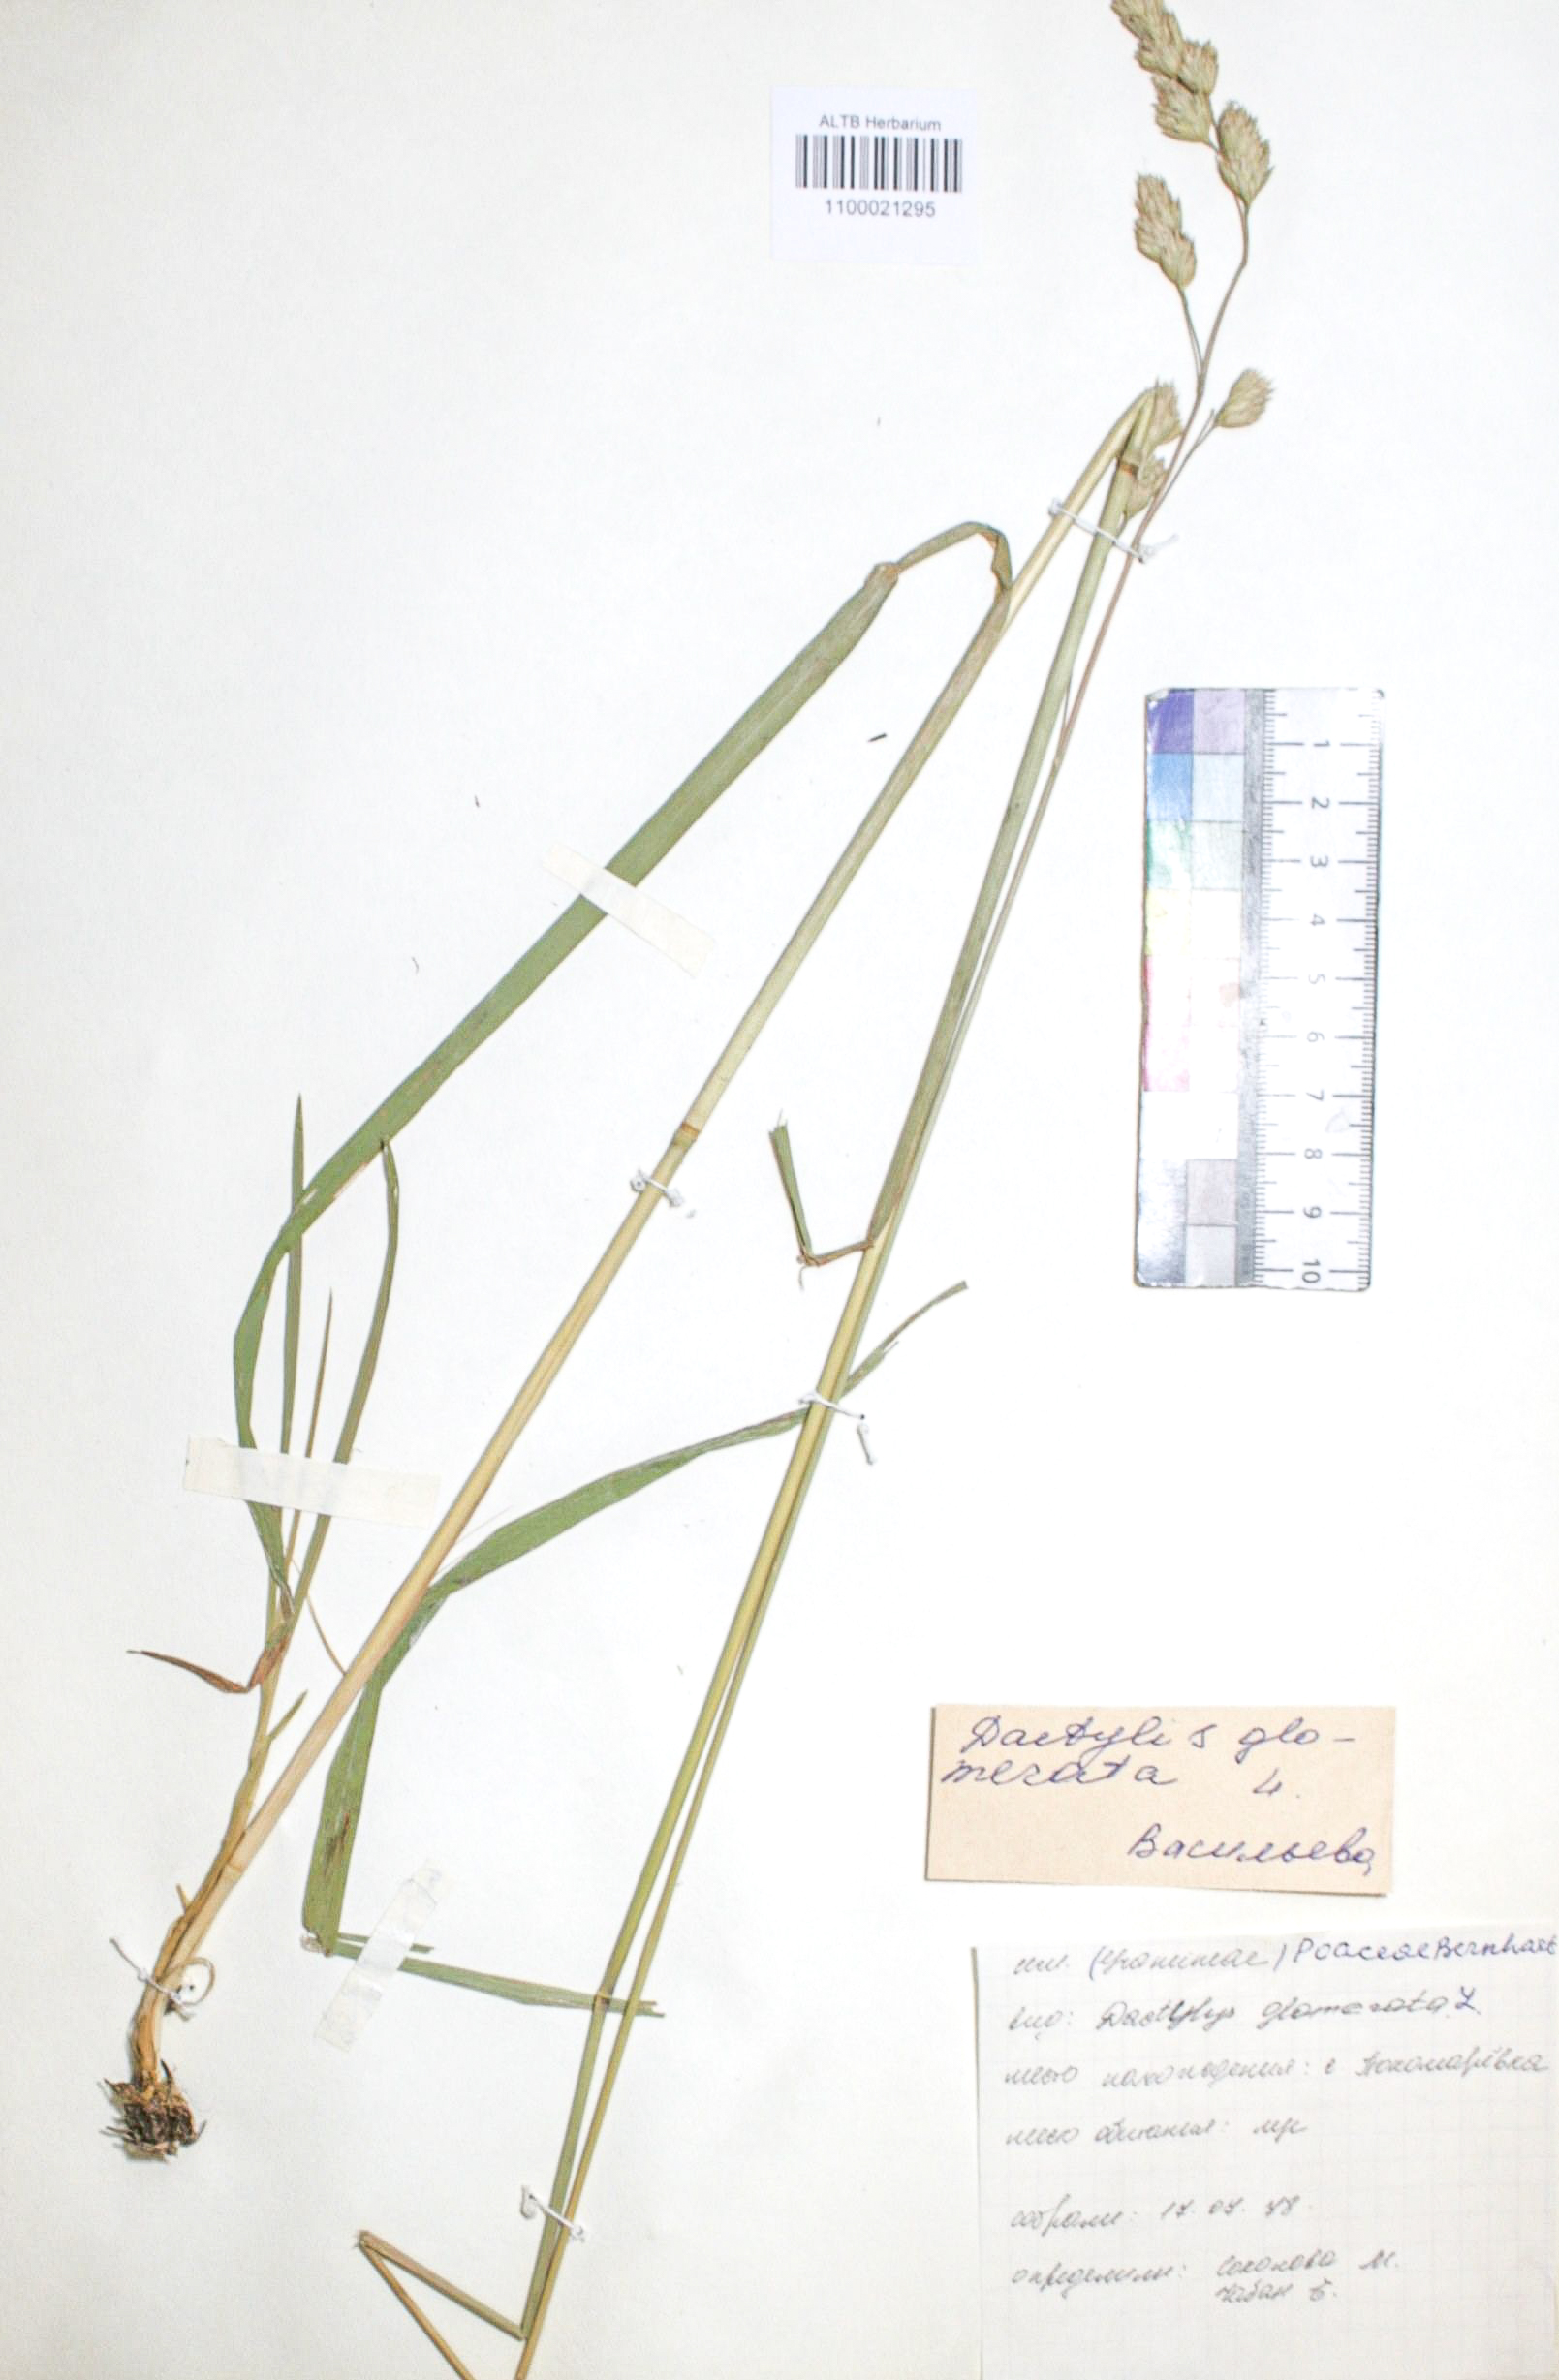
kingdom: Plantae
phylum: Tracheophyta
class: Liliopsida
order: Poales
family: Poaceae
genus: Dactylis
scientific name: Dactylis glomerata
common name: Orchardgrass
